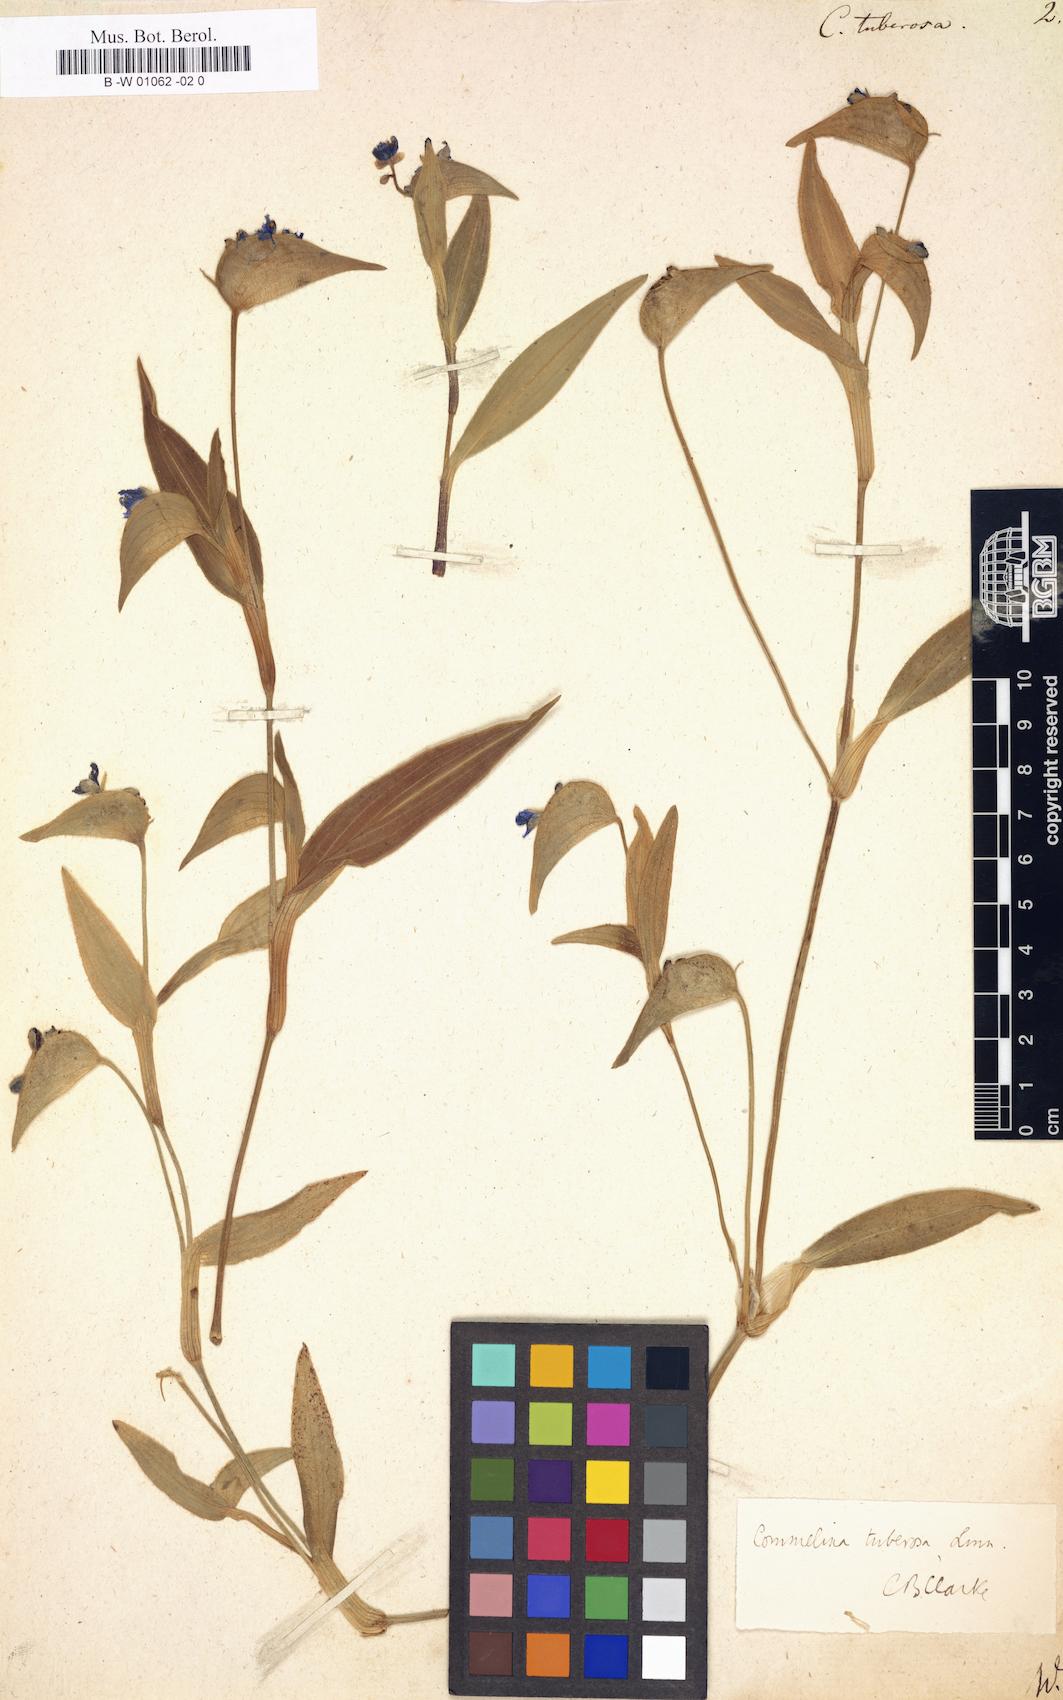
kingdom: Plantae
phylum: Tracheophyta
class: Liliopsida
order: Commelinales
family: Commelinaceae
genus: Commelina
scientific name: Commelina tuberosa
